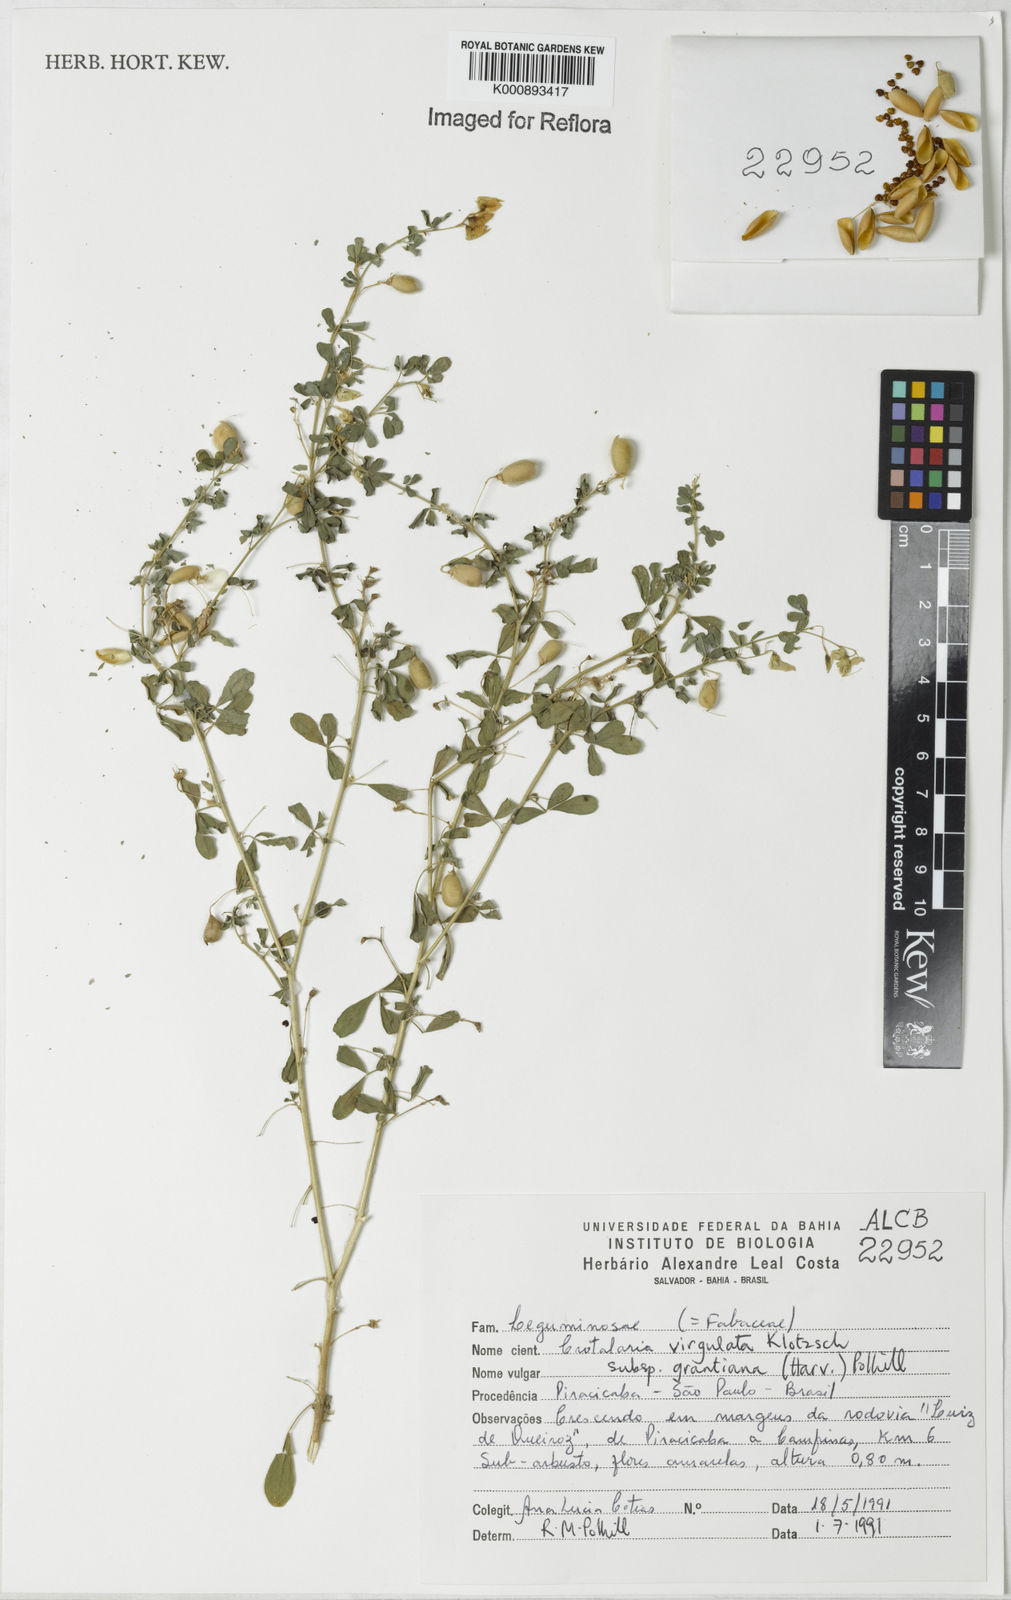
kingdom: Plantae
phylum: Tracheophyta
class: Magnoliopsida
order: Fabales
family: Fabaceae
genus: Crotalaria
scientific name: Crotalaria virgulata
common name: Thicket rattlebox
